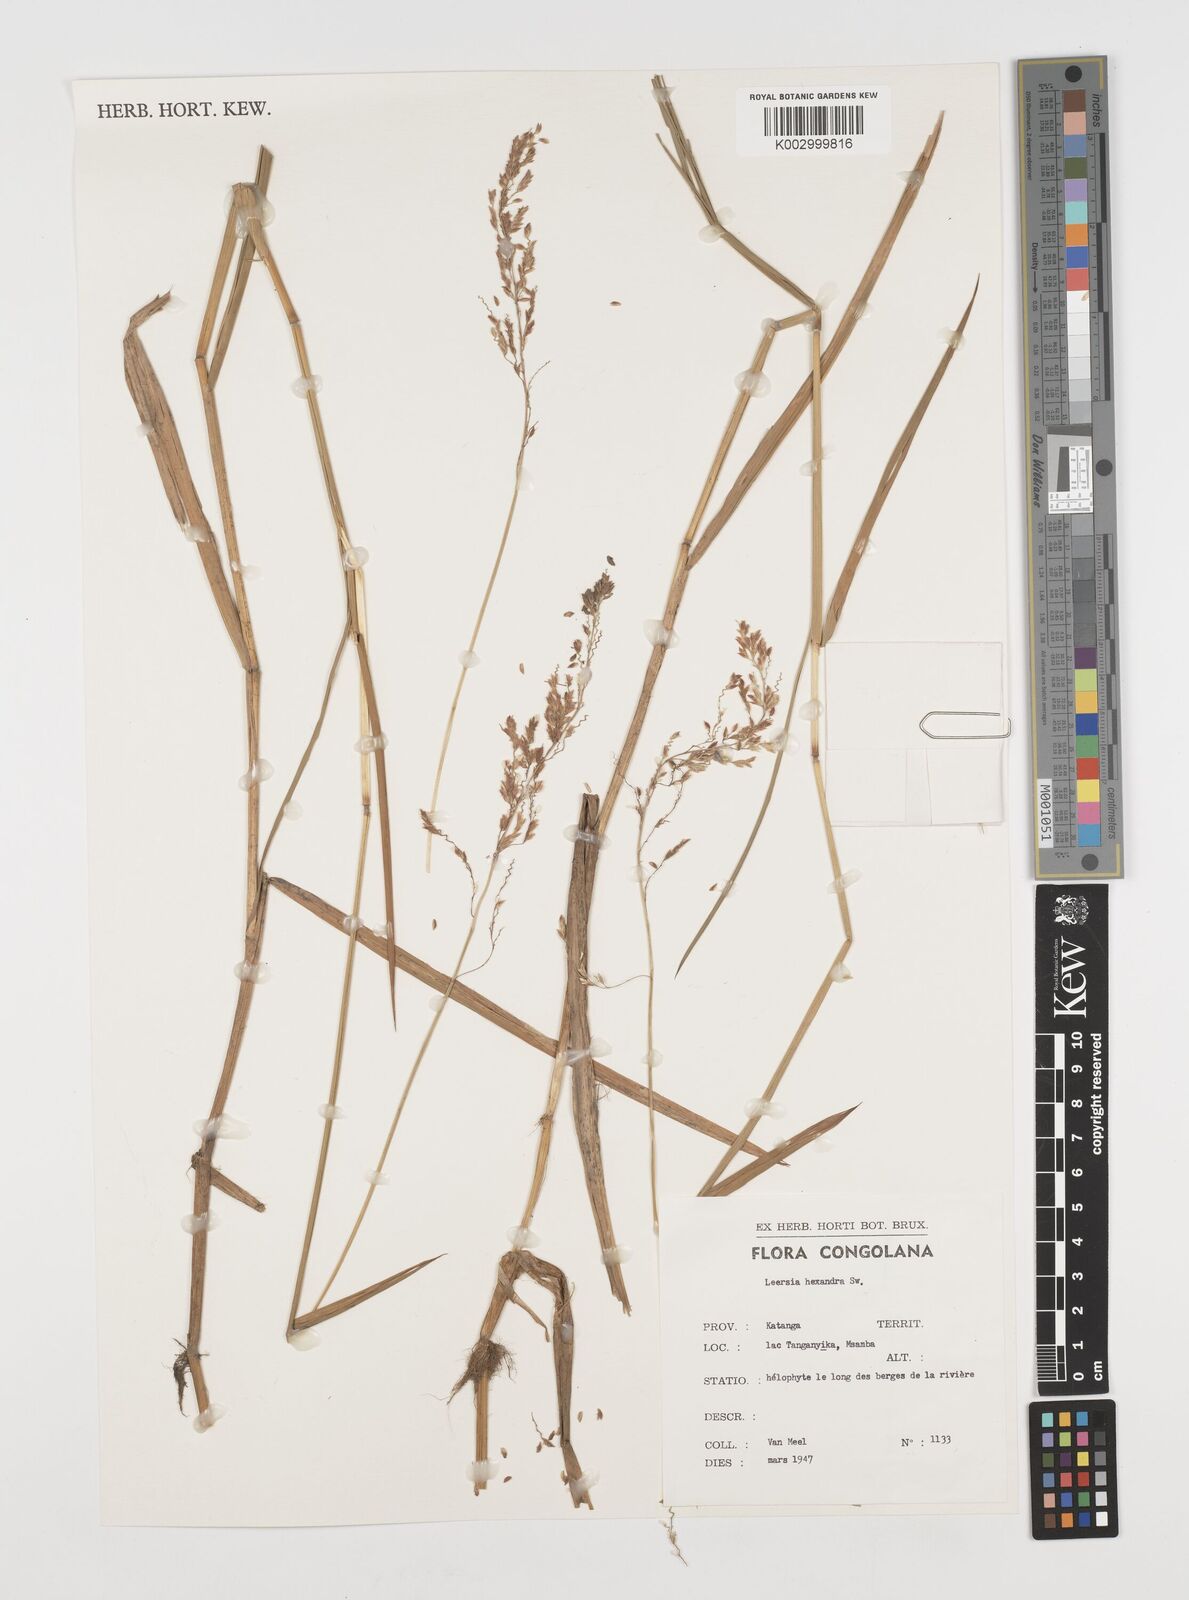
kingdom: Plantae
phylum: Tracheophyta
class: Liliopsida
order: Poales
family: Poaceae
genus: Leersia
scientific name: Leersia hexandra
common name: Southern cut grass
